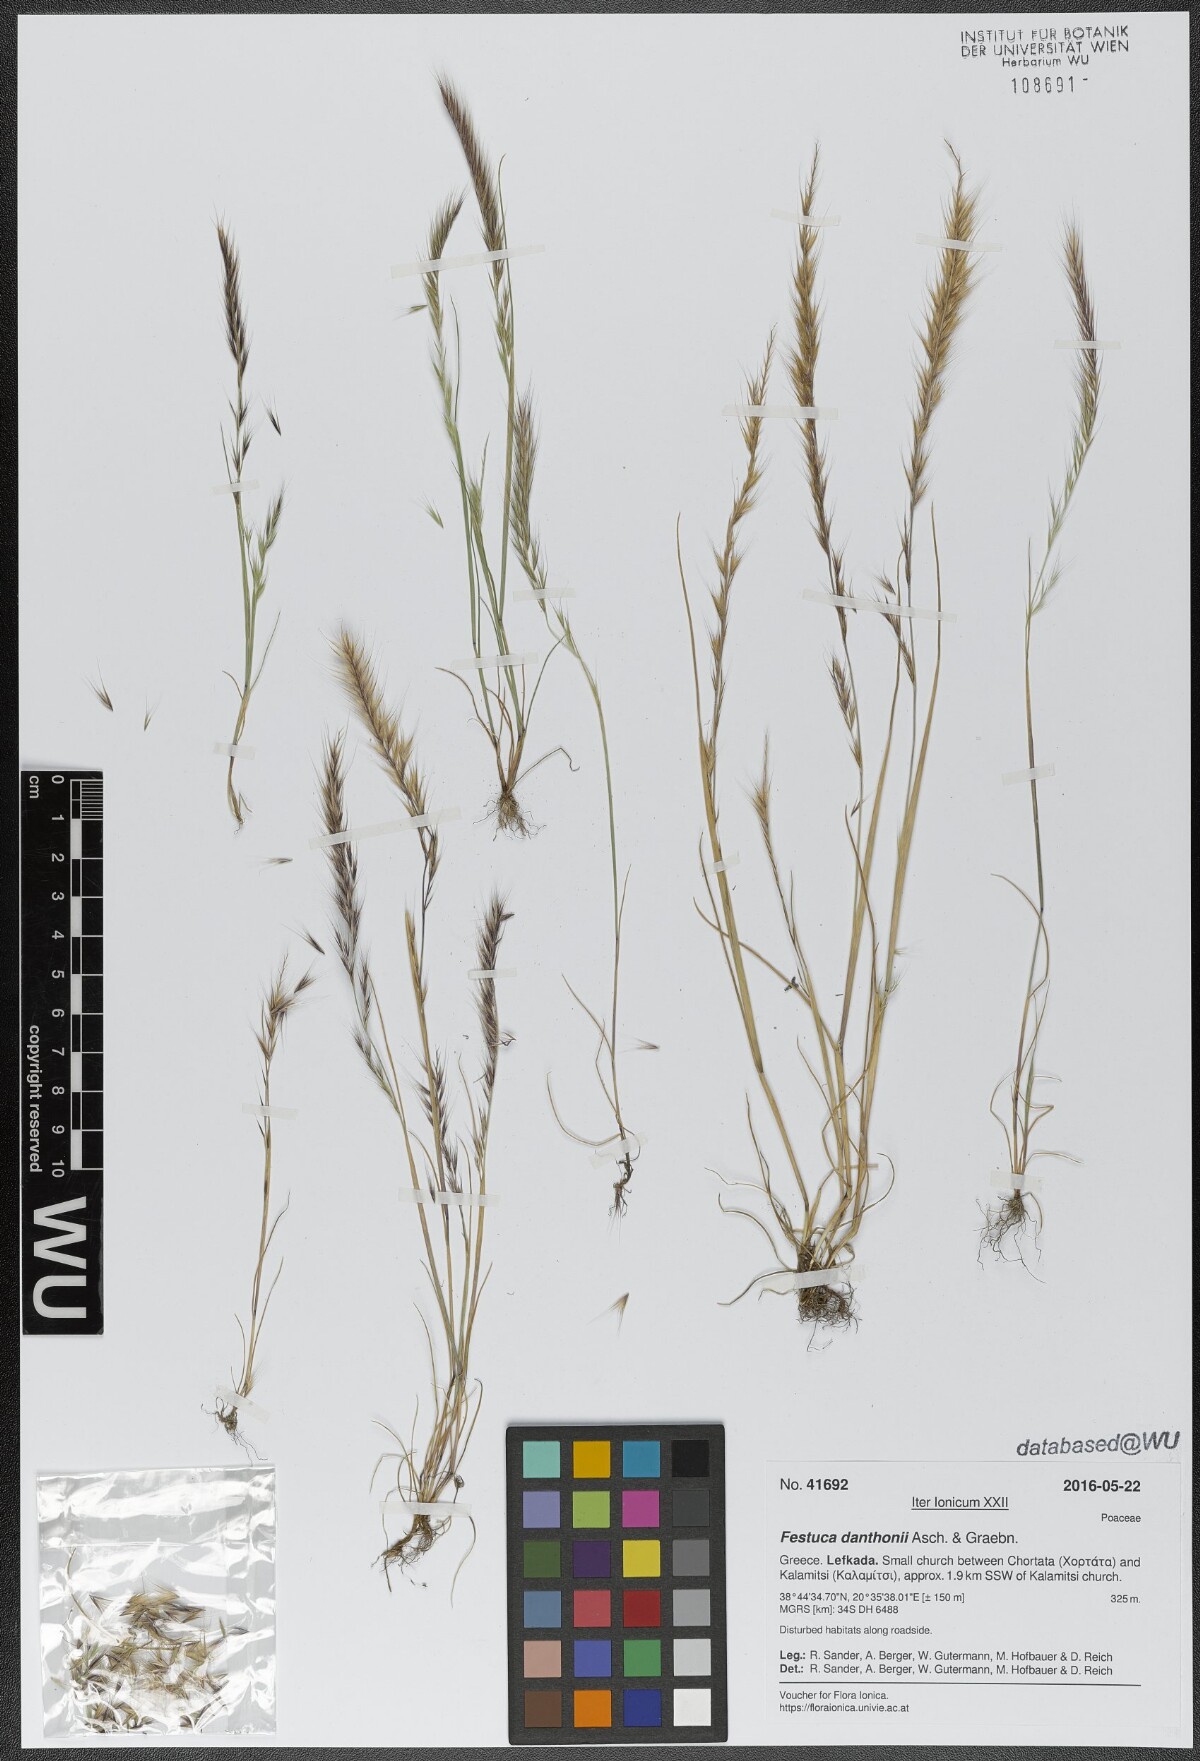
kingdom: Plantae
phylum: Tracheophyta
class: Liliopsida
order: Poales
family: Poaceae
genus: Festuca
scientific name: Festuca ambigua
